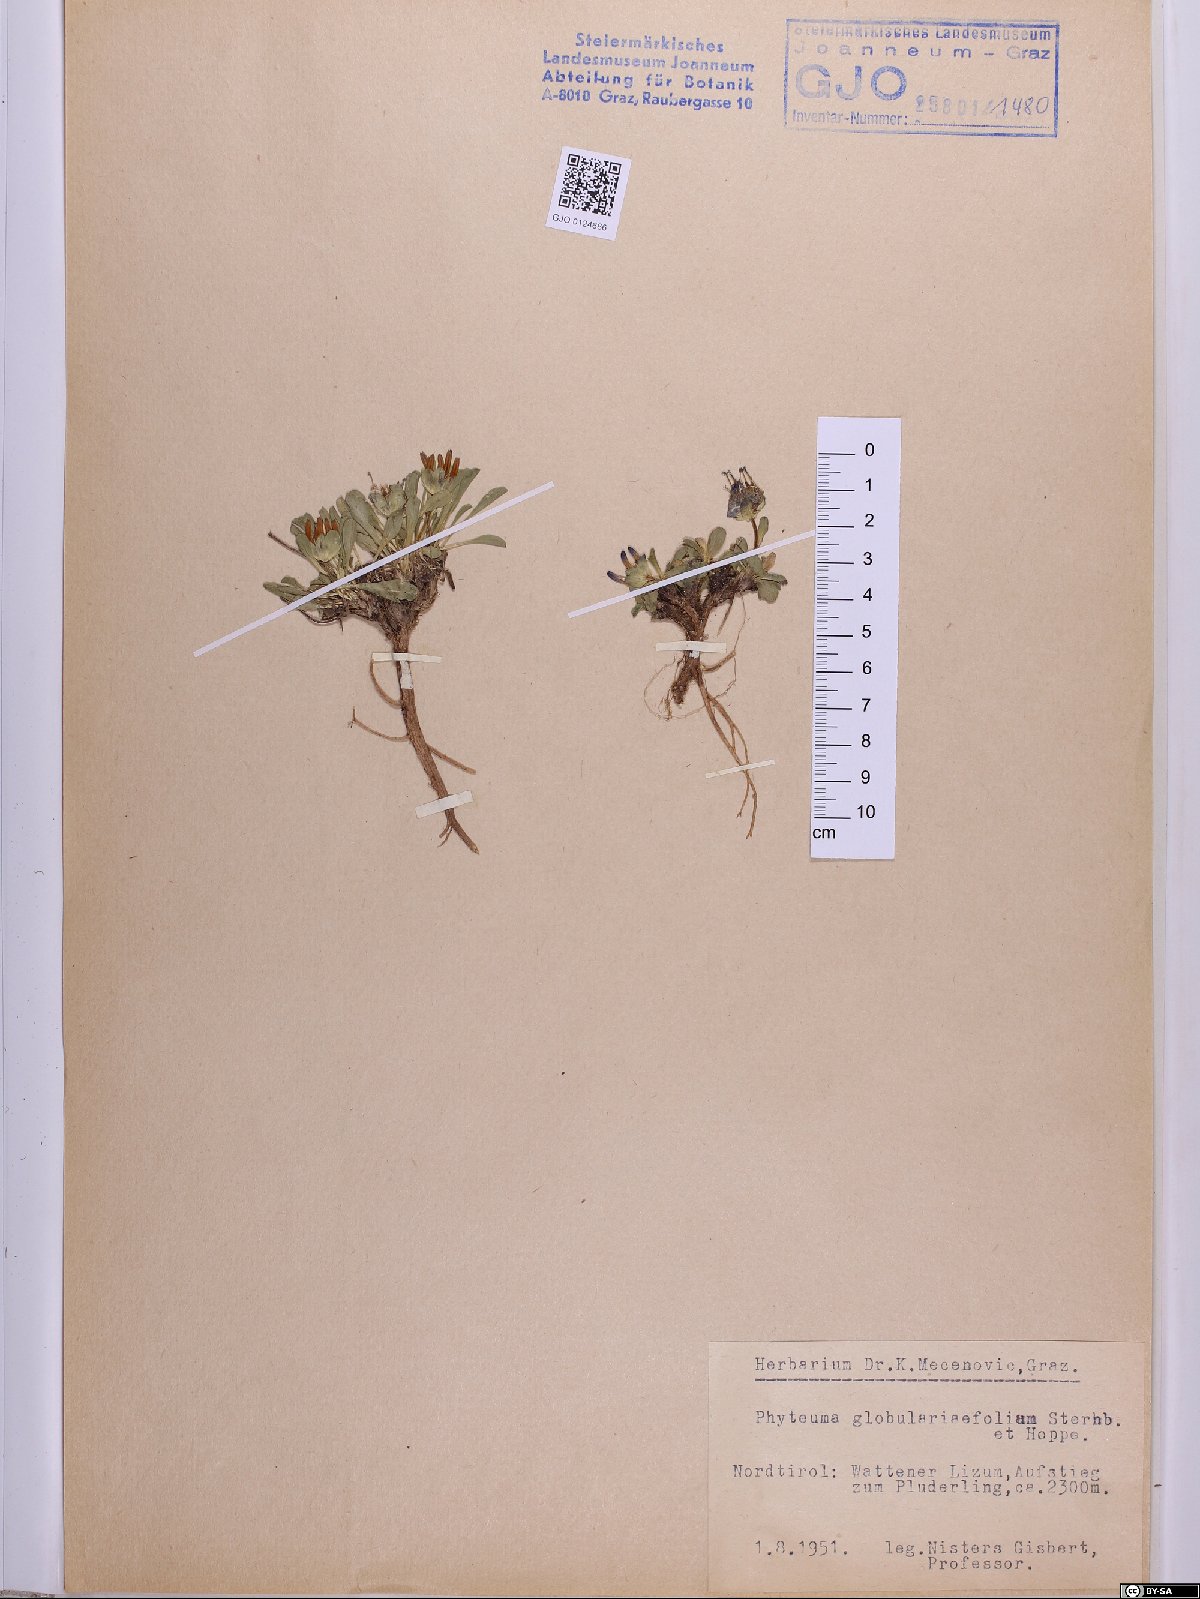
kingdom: Plantae
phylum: Tracheophyta
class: Magnoliopsida
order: Asterales
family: Campanulaceae
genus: Phyteuma
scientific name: Phyteuma globulariifolium
